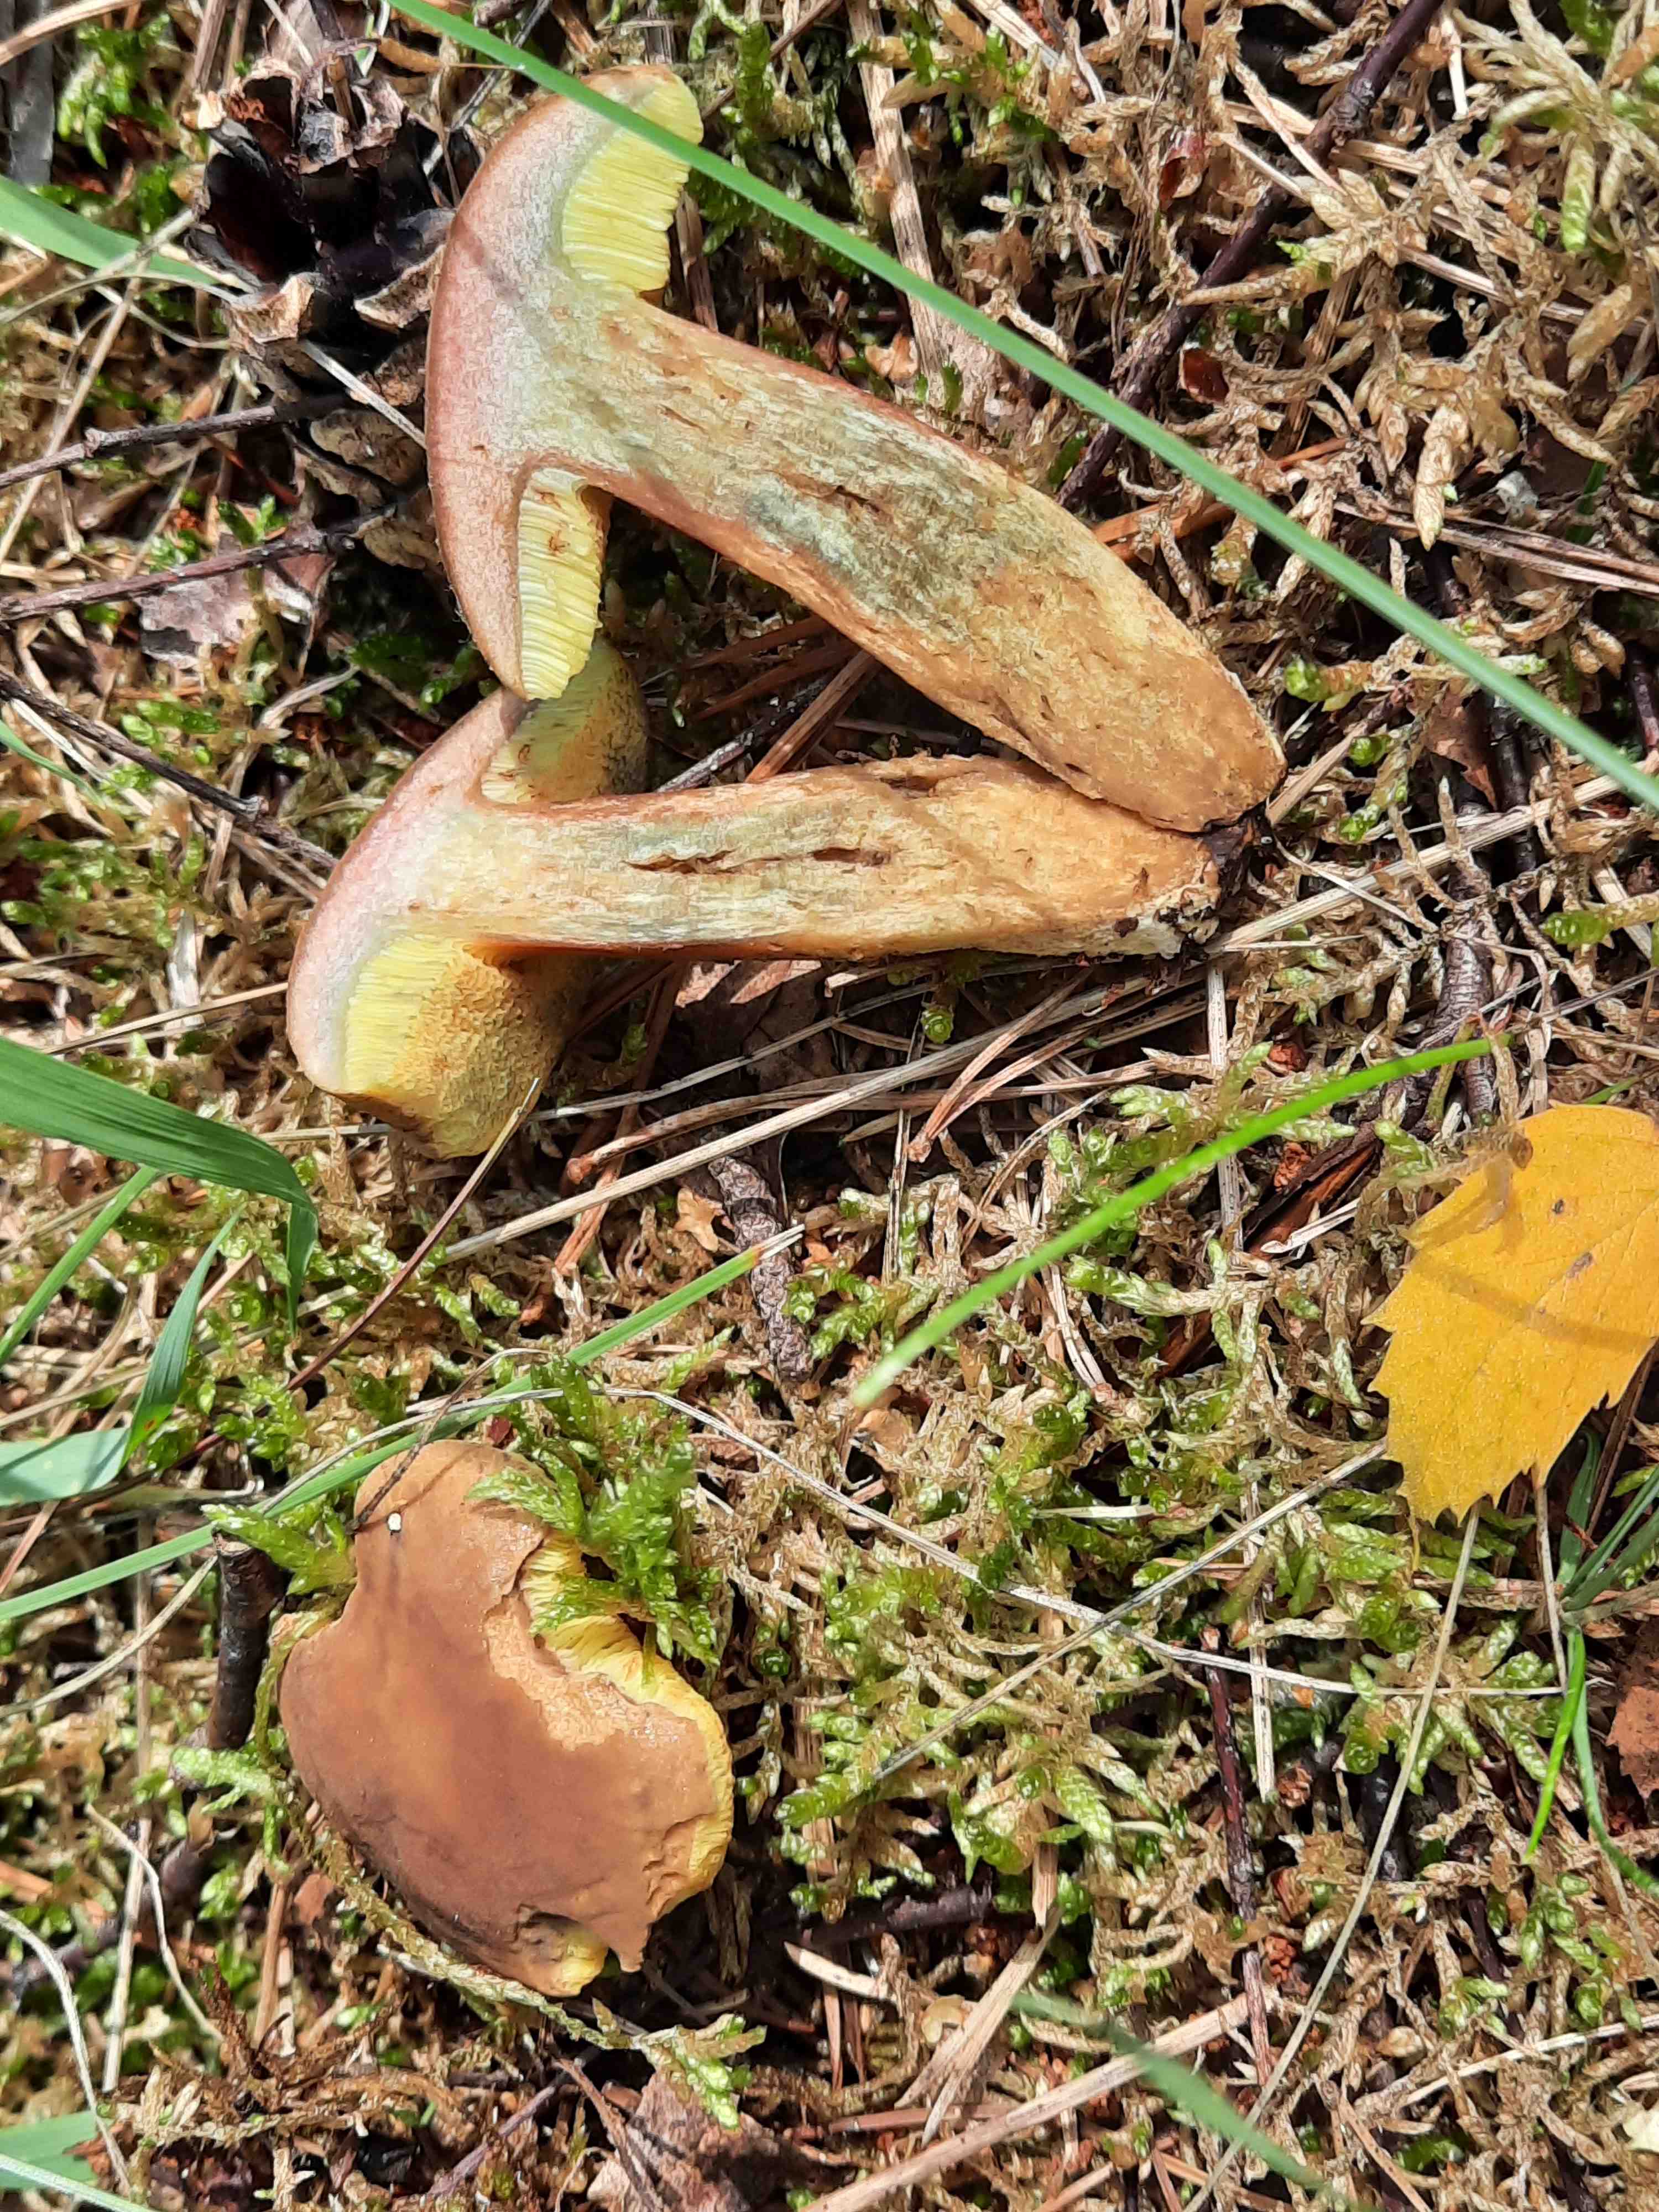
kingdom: Fungi
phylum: Basidiomycota
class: Agaricomycetes
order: Boletales
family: Boletaceae
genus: Hortiboletus
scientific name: Hortiboletus bubalinus
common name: aurora-rørhat
